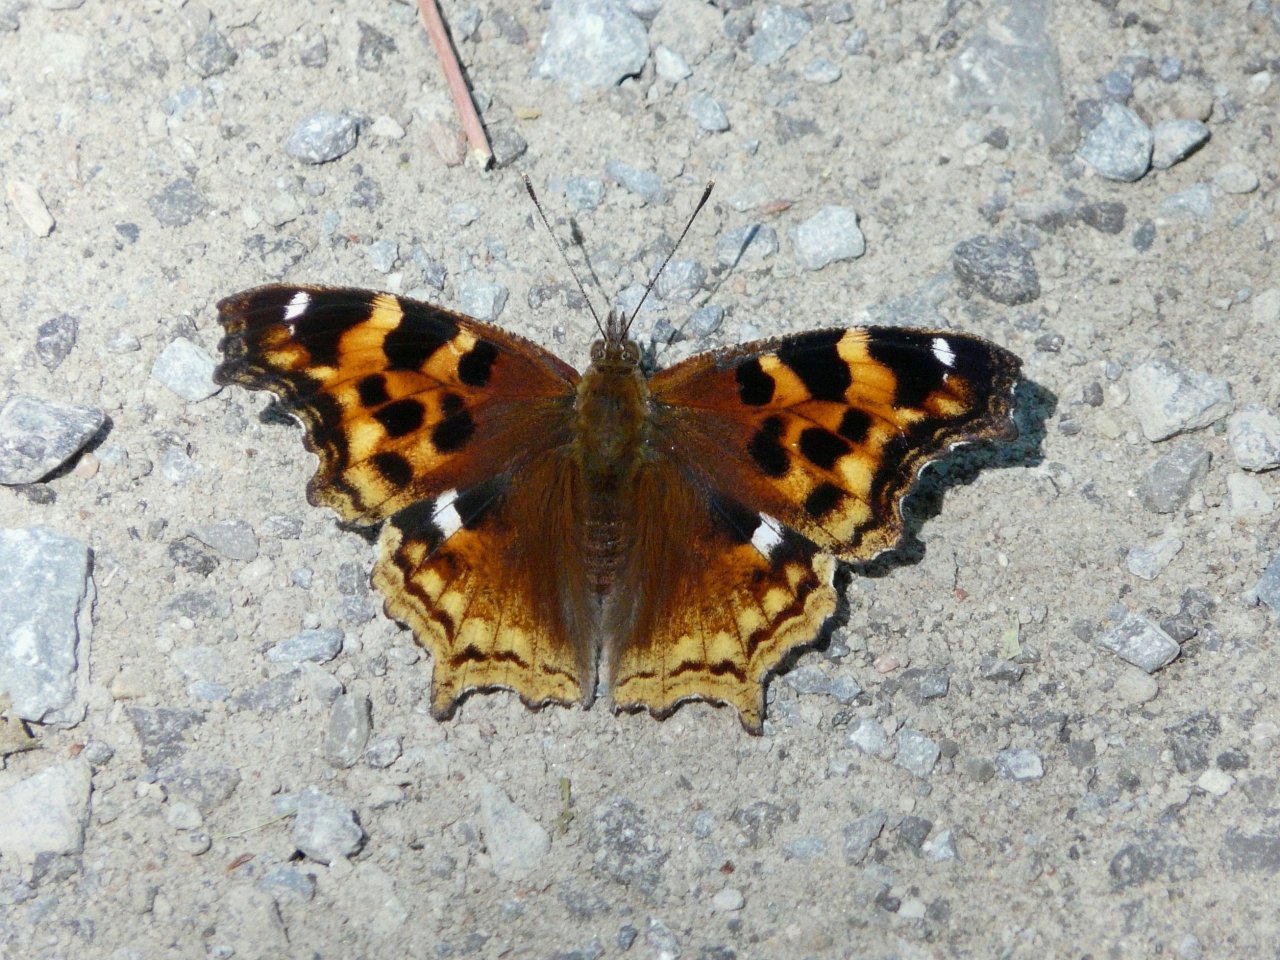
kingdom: Animalia
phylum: Arthropoda
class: Insecta
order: Lepidoptera
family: Nymphalidae
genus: Polygonia
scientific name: Polygonia vaualbum
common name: Compton Tortoiseshell
